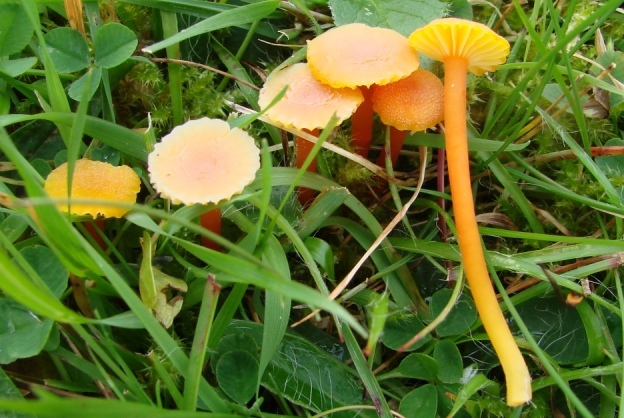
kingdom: Fungi
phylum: Basidiomycota
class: Agaricomycetes
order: Agaricales
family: Hygrophoraceae
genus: Hygrocybe
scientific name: Hygrocybe cantharellus
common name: kantarel-vokshat
